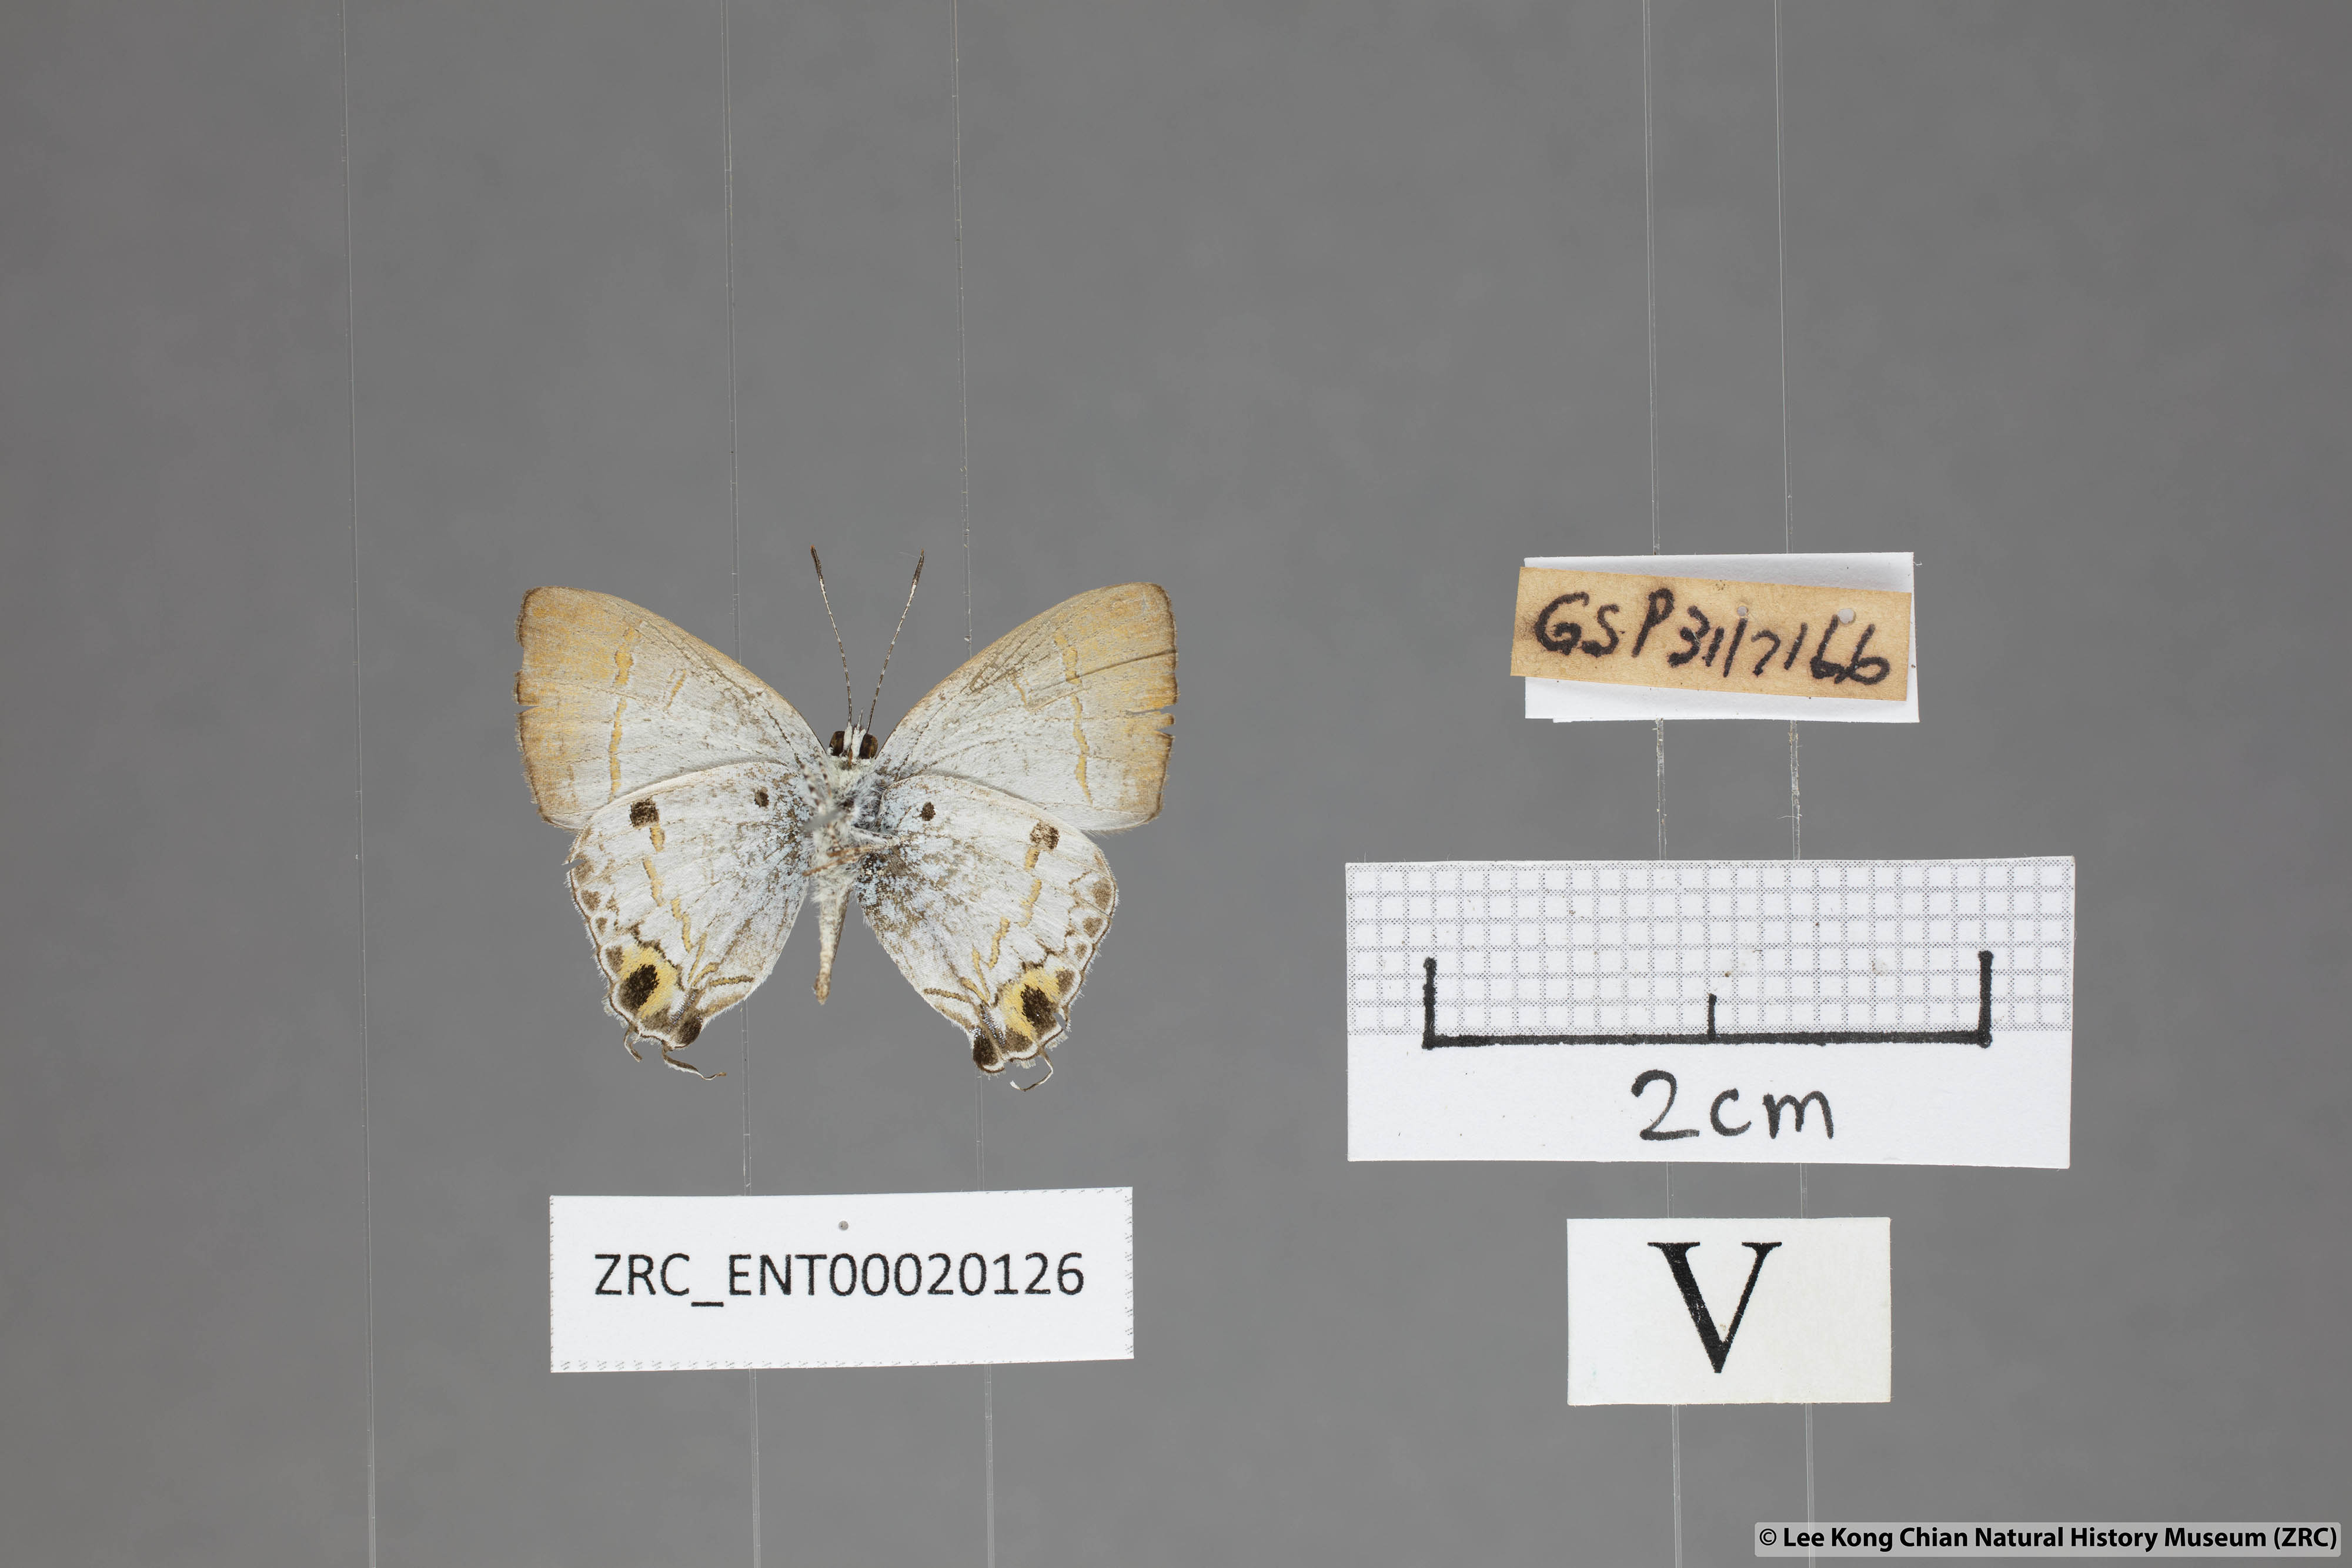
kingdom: Animalia
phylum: Arthropoda
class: Insecta
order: Lepidoptera
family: Lycaenidae
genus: Chliaria
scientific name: Chliaria othona
